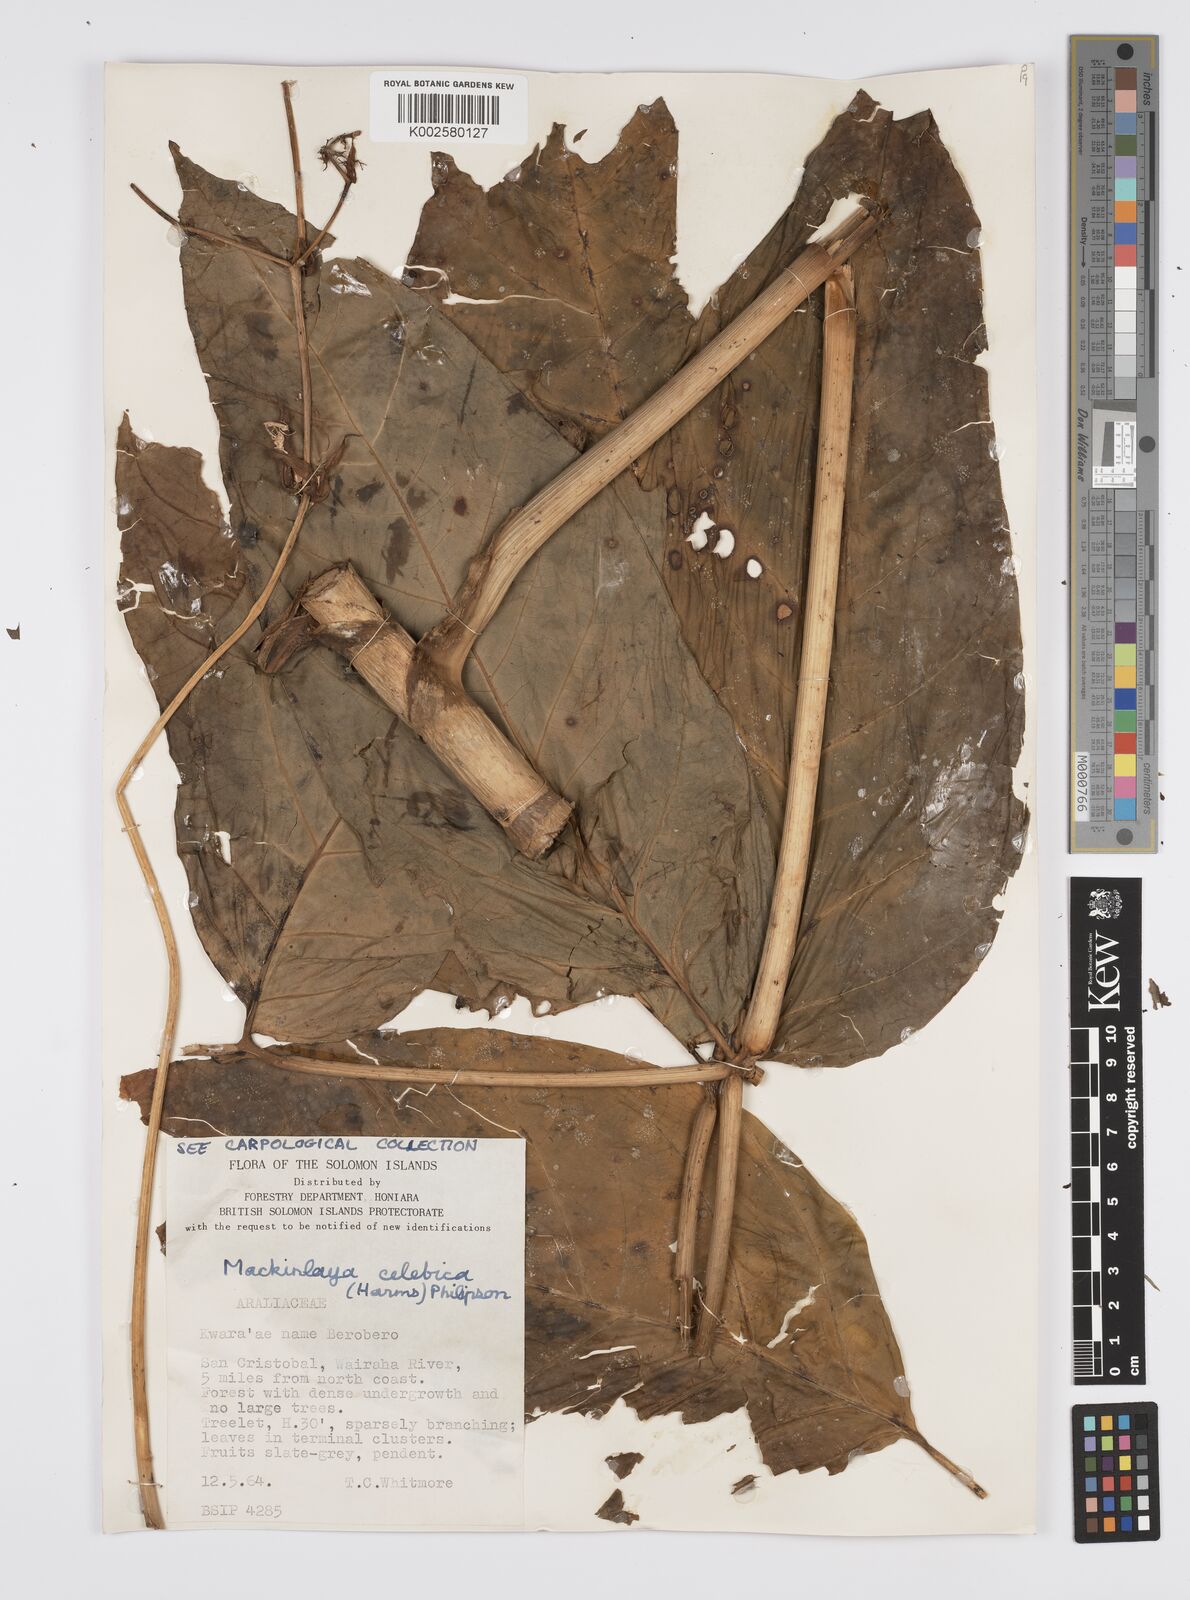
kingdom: Plantae
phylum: Tracheophyta
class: Magnoliopsida
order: Apiales
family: Apiaceae
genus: Mackinlaya
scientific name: Mackinlaya celebica
